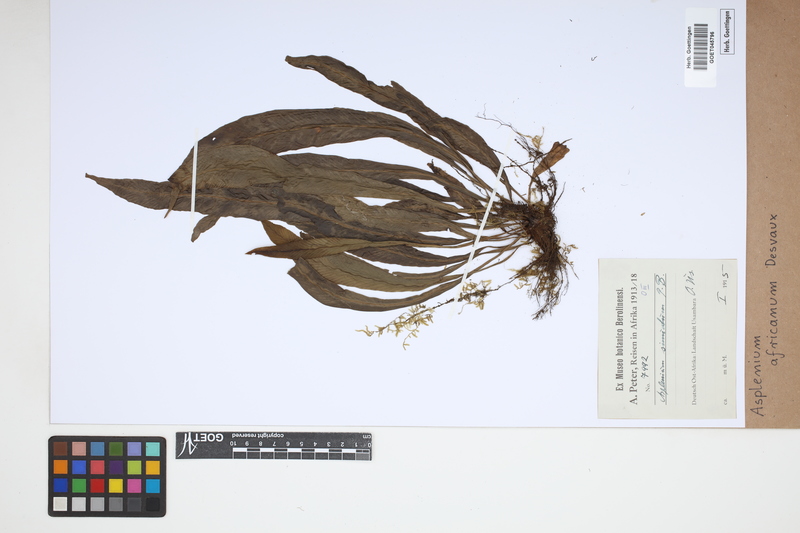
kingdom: Plantae
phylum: Tracheophyta
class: Polypodiopsida
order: Polypodiales
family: Aspleniaceae
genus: Asplenium
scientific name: Asplenium africanum
